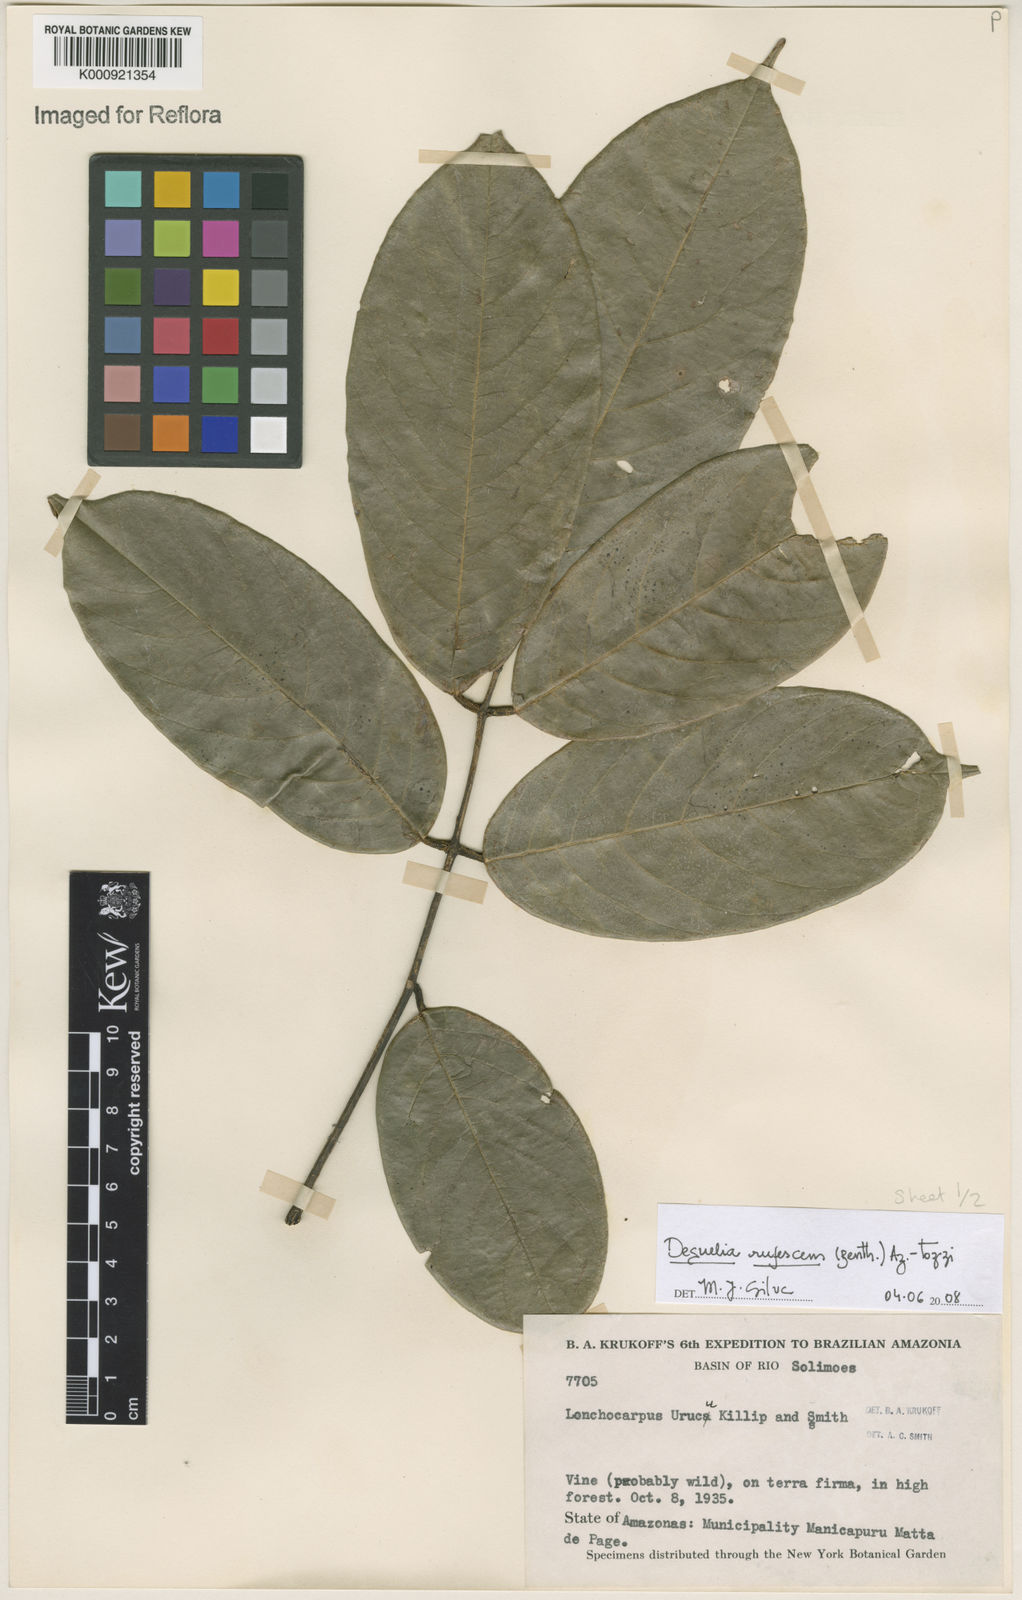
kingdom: Plantae
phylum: Tracheophyta
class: Magnoliopsida
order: Fabales
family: Fabaceae
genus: Deguelia
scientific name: Deguelia
